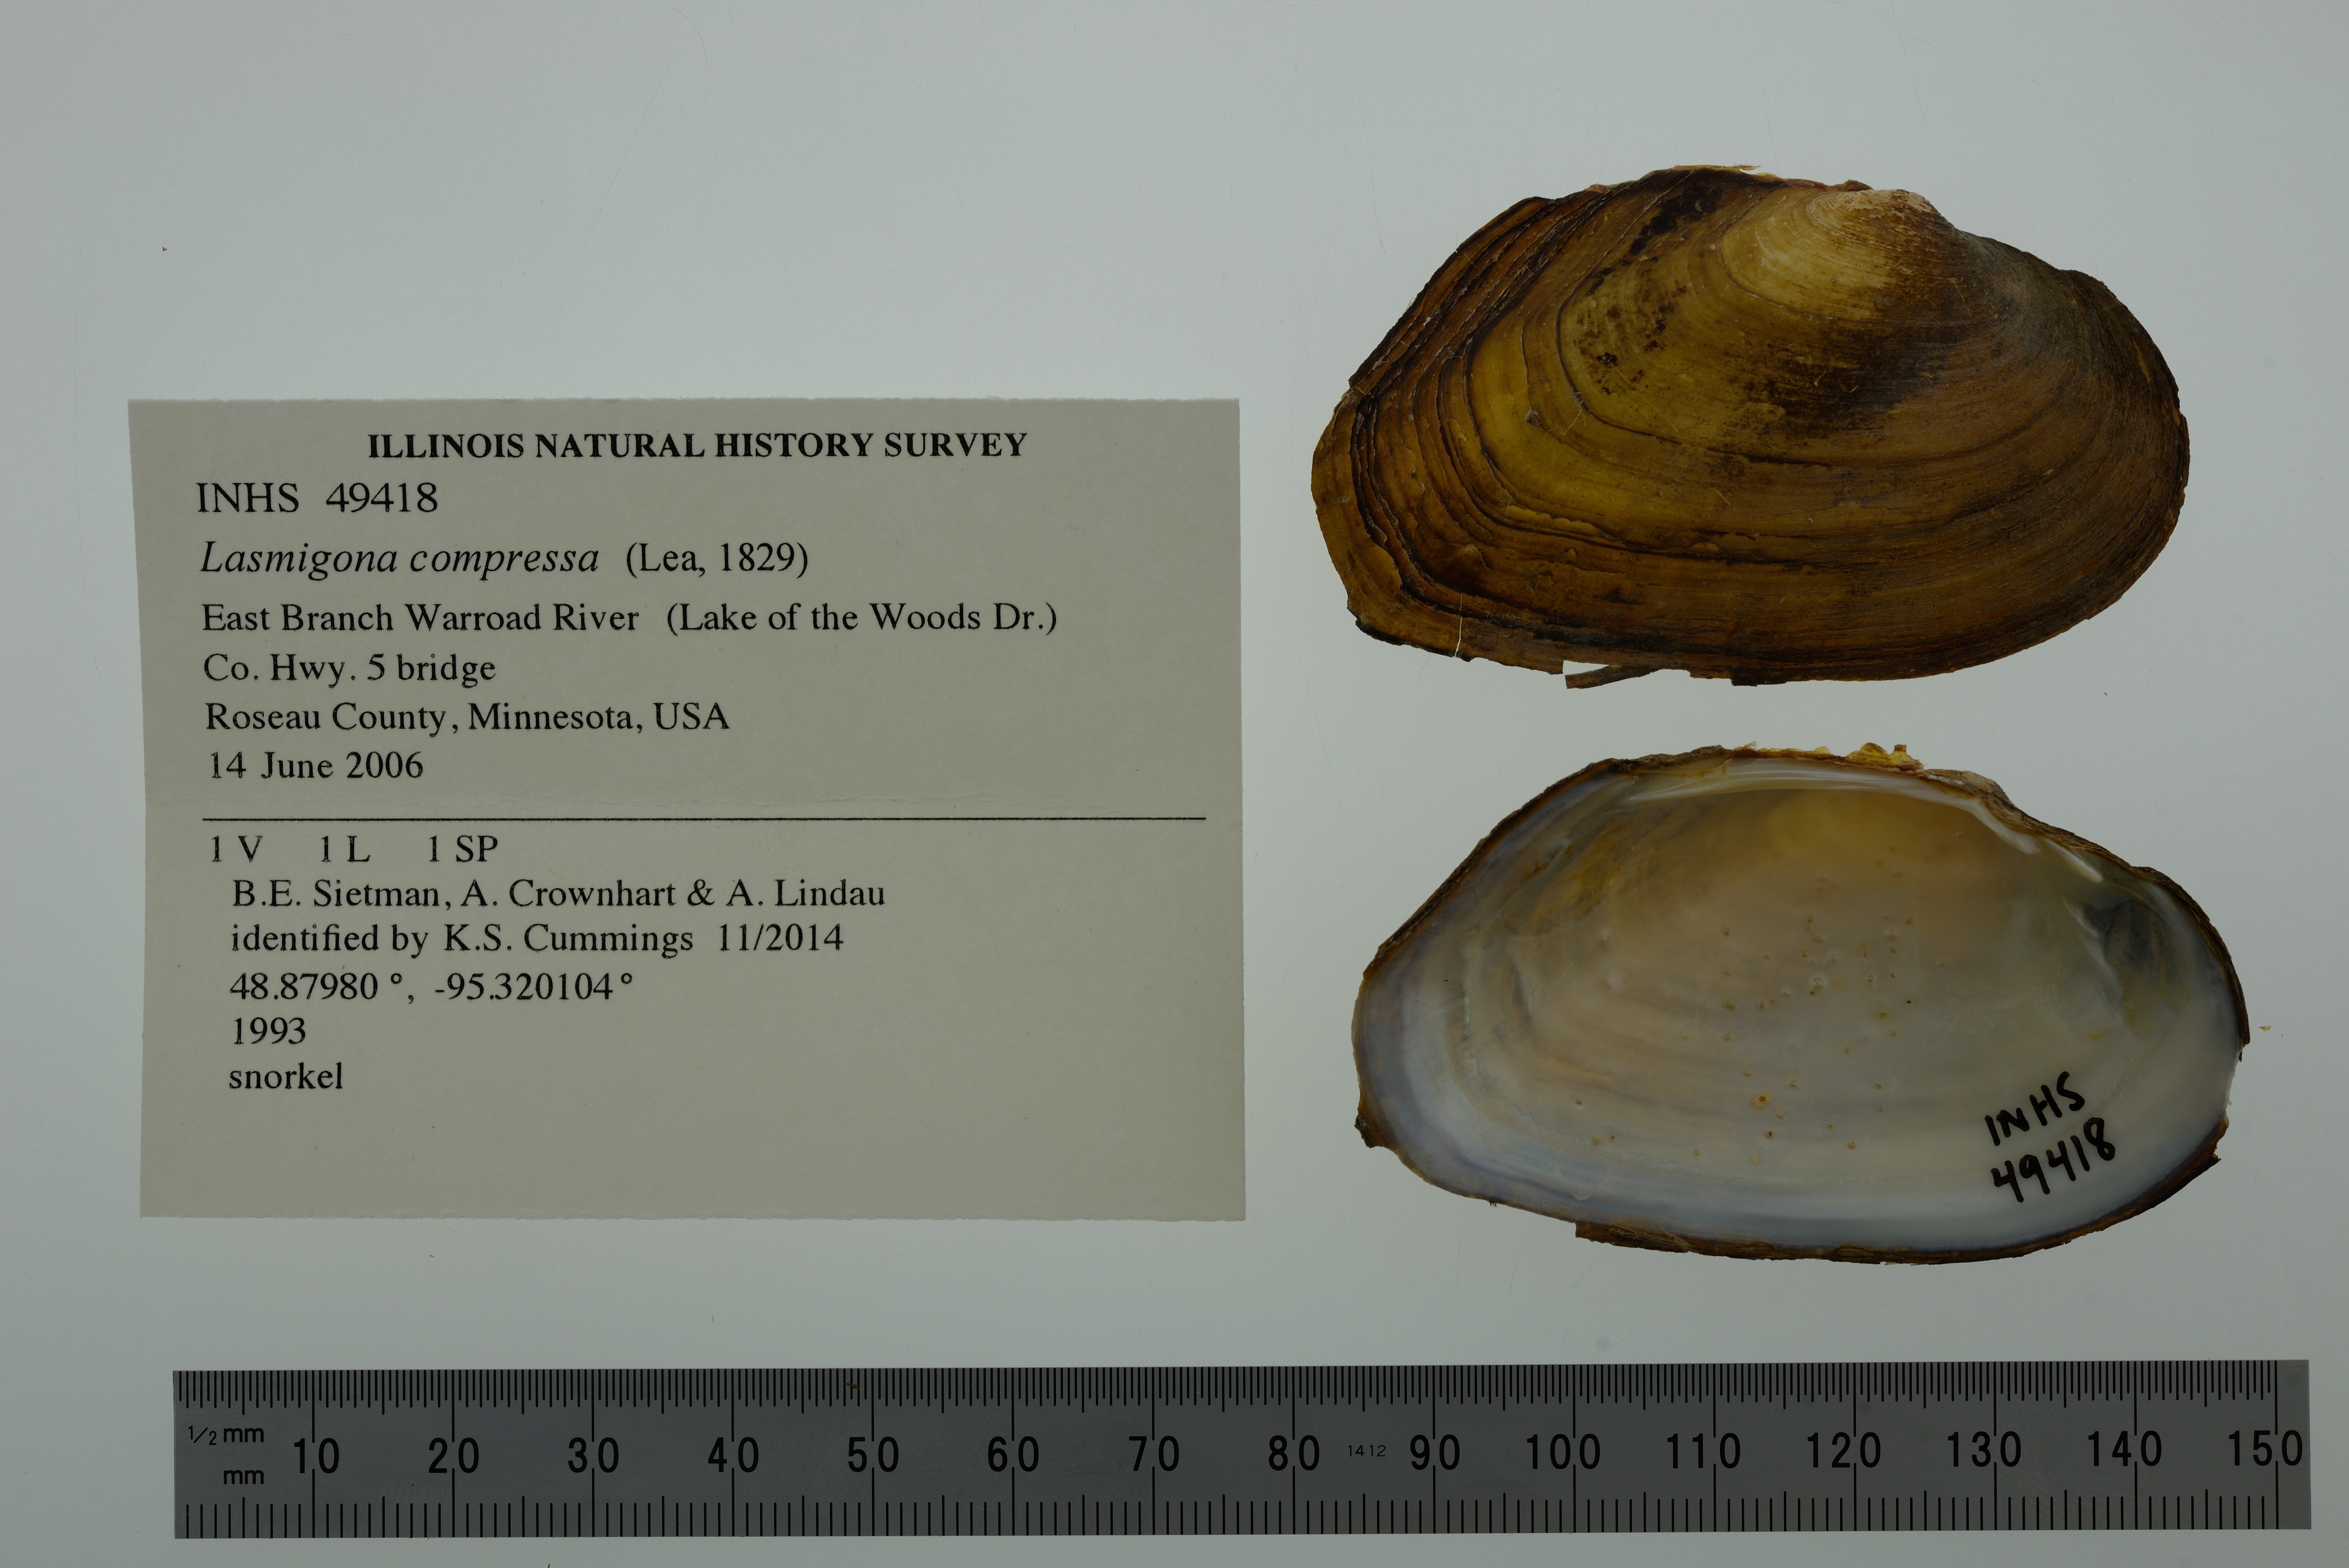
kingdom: Animalia
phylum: Mollusca
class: Bivalvia
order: Unionida
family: Unionidae
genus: Lasmigona
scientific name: Lasmigona compressa
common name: Creek heelsplitter
